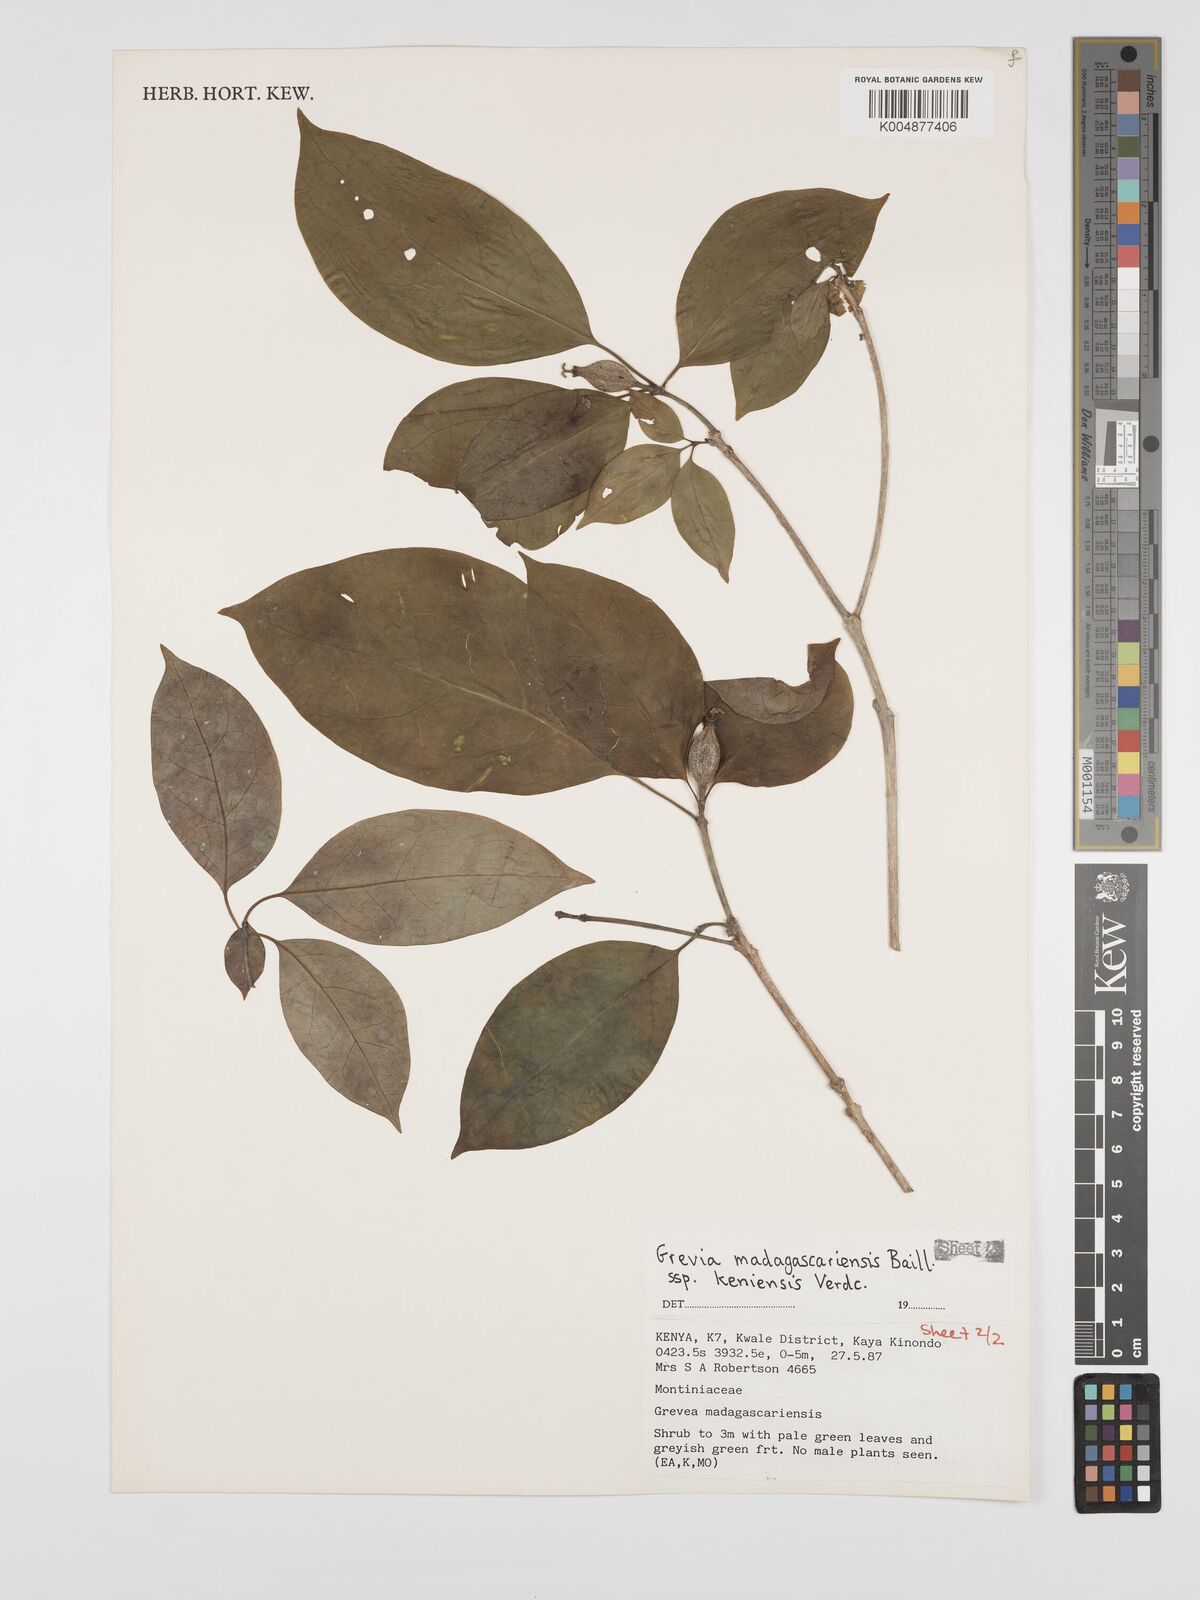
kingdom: Plantae
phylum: Tracheophyta
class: Magnoliopsida
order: Solanales
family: Montiniaceae
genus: Grevea
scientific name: Grevea
